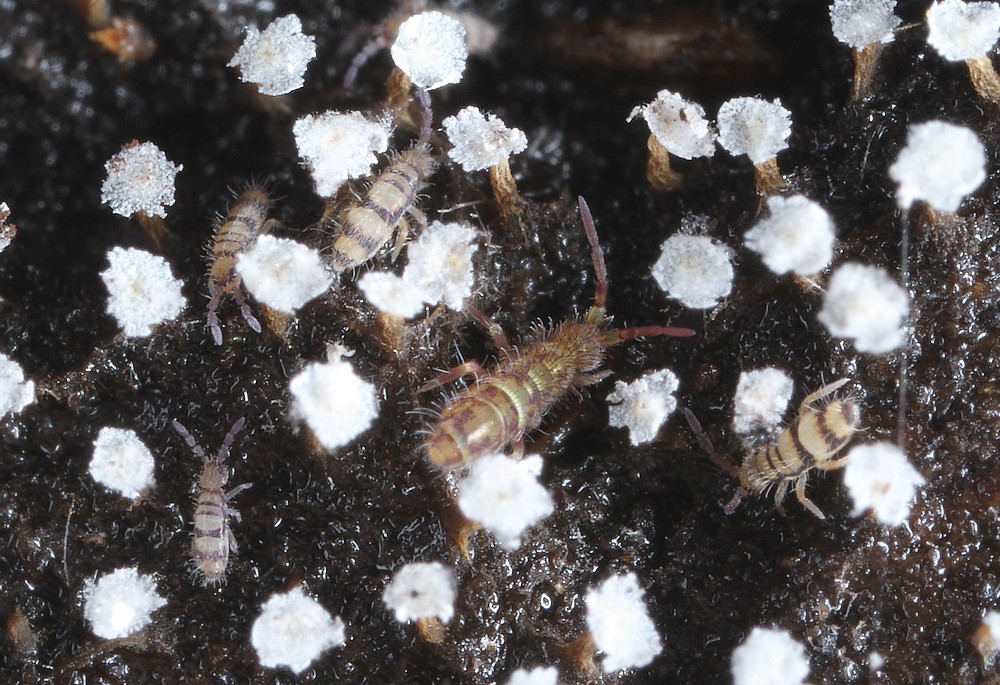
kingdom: Protozoa
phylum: Mycetozoa
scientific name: Mycetozoa
